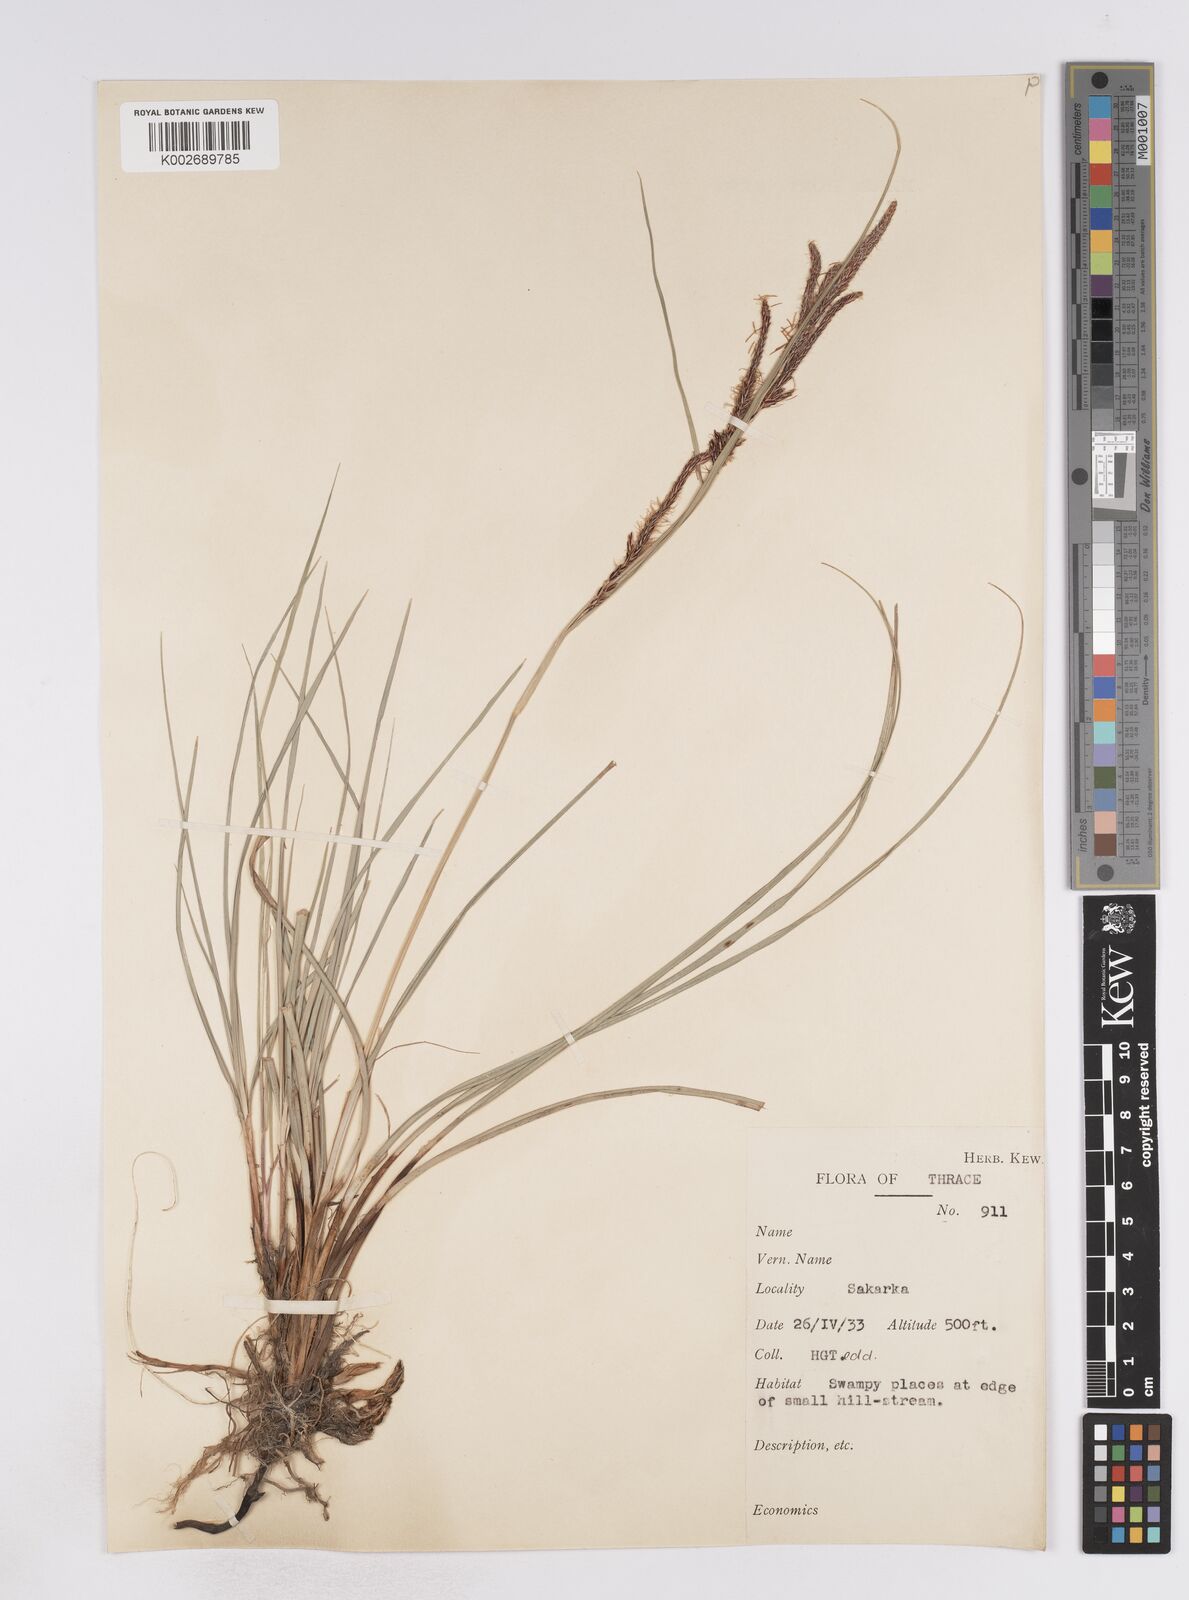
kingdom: Plantae
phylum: Tracheophyta
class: Liliopsida
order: Poales
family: Cyperaceae
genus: Carex
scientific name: Carex flacca
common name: Glaucous sedge
